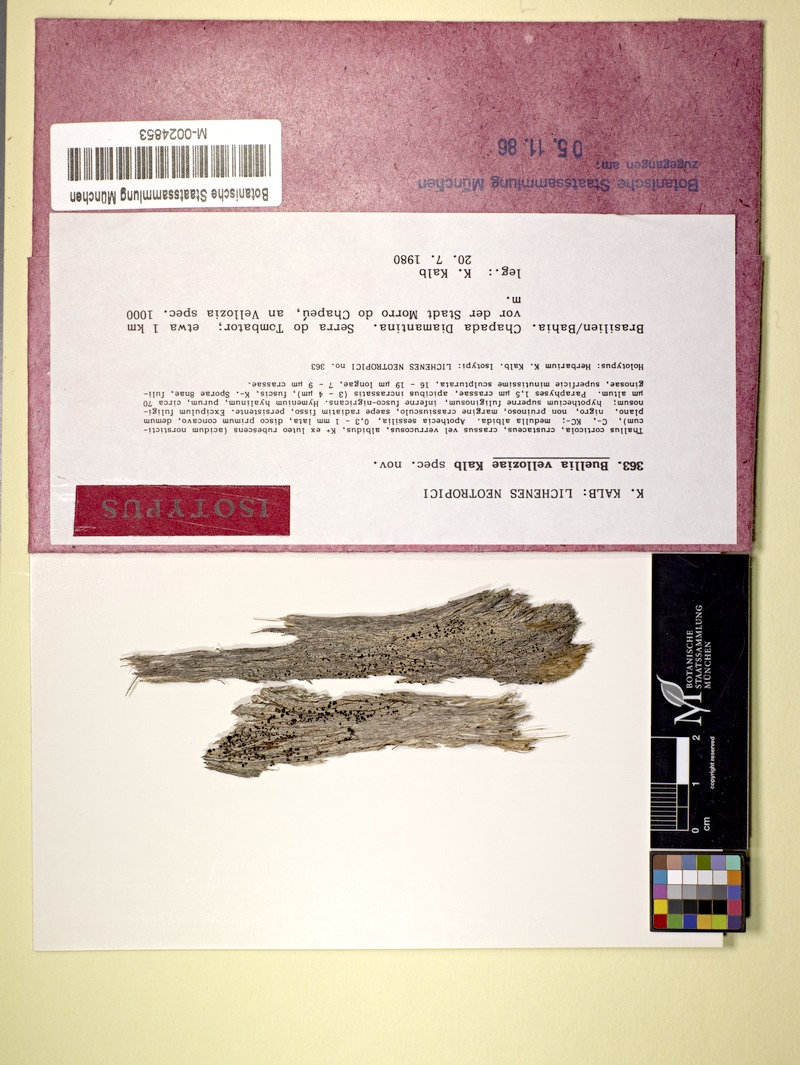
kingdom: Fungi
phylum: Ascomycota
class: Lecanoromycetes
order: Caliciales
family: Caliciaceae
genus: Hypoflavia
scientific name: Hypoflavia velloziae
